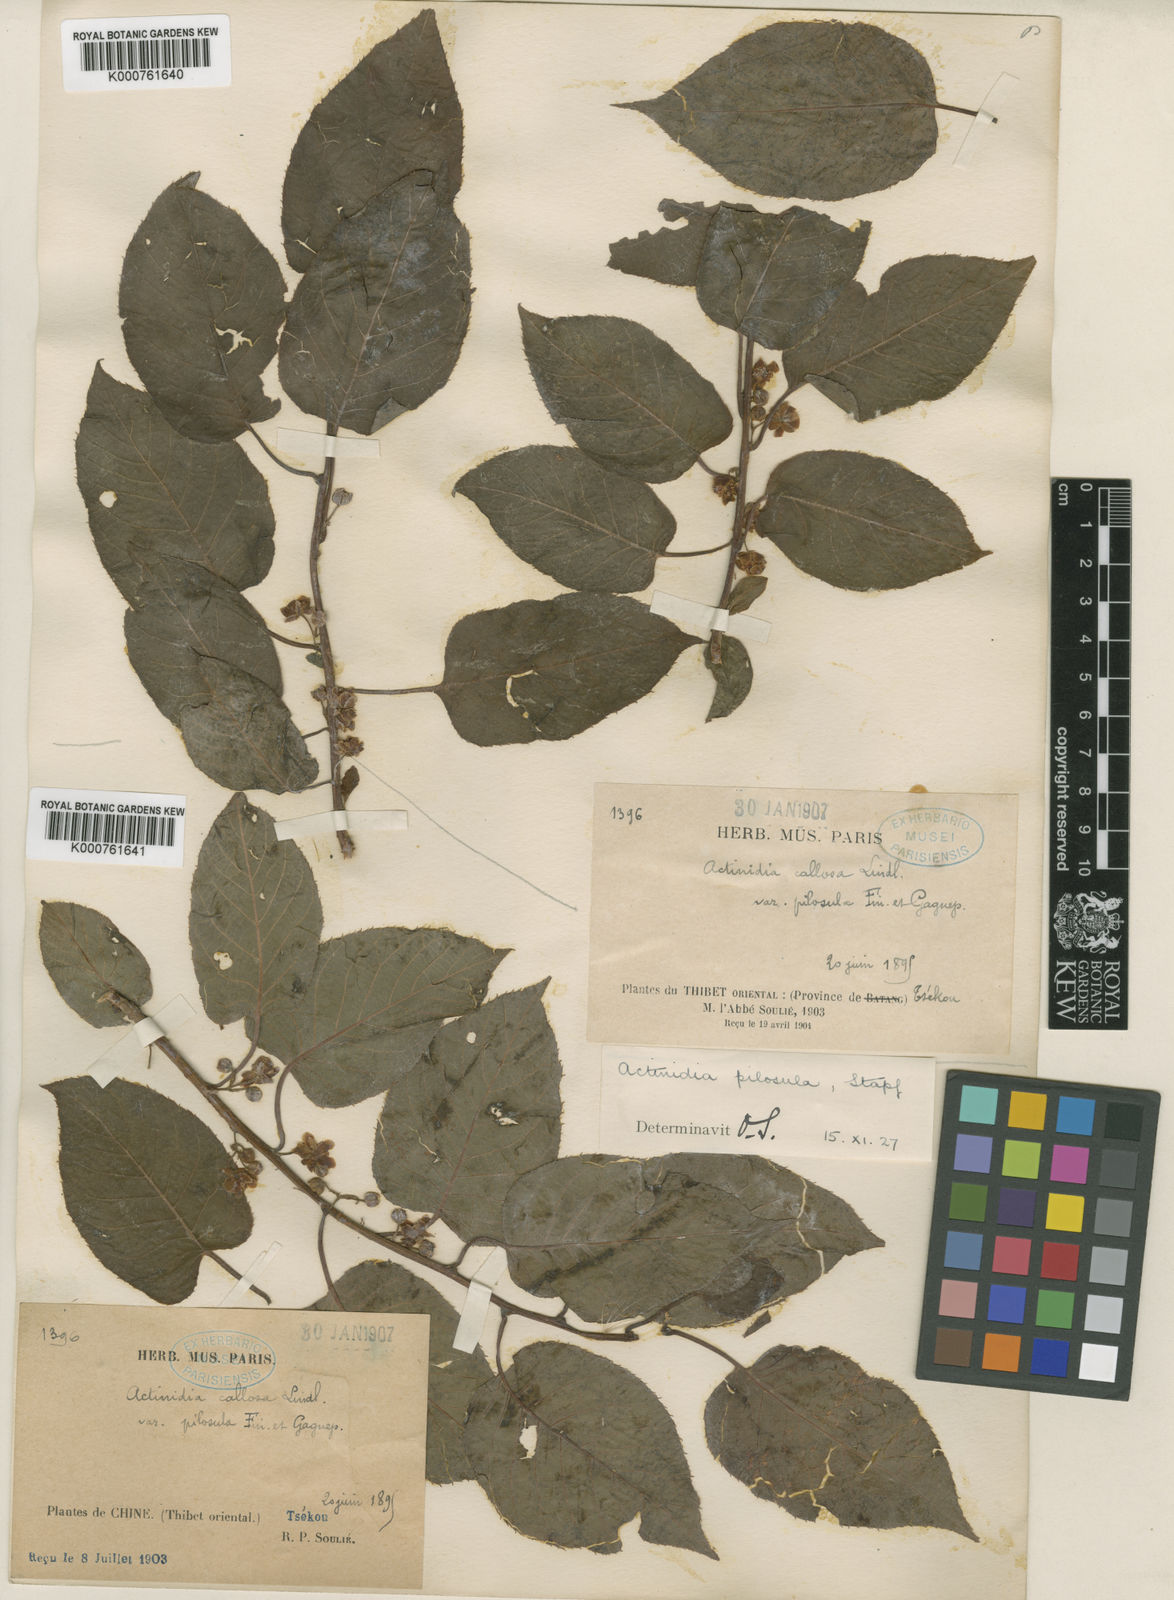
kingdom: Plantae
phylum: Tracheophyta
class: Magnoliopsida
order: Ericales
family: Actinidiaceae
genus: Actinidia
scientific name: Actinidia callosa
